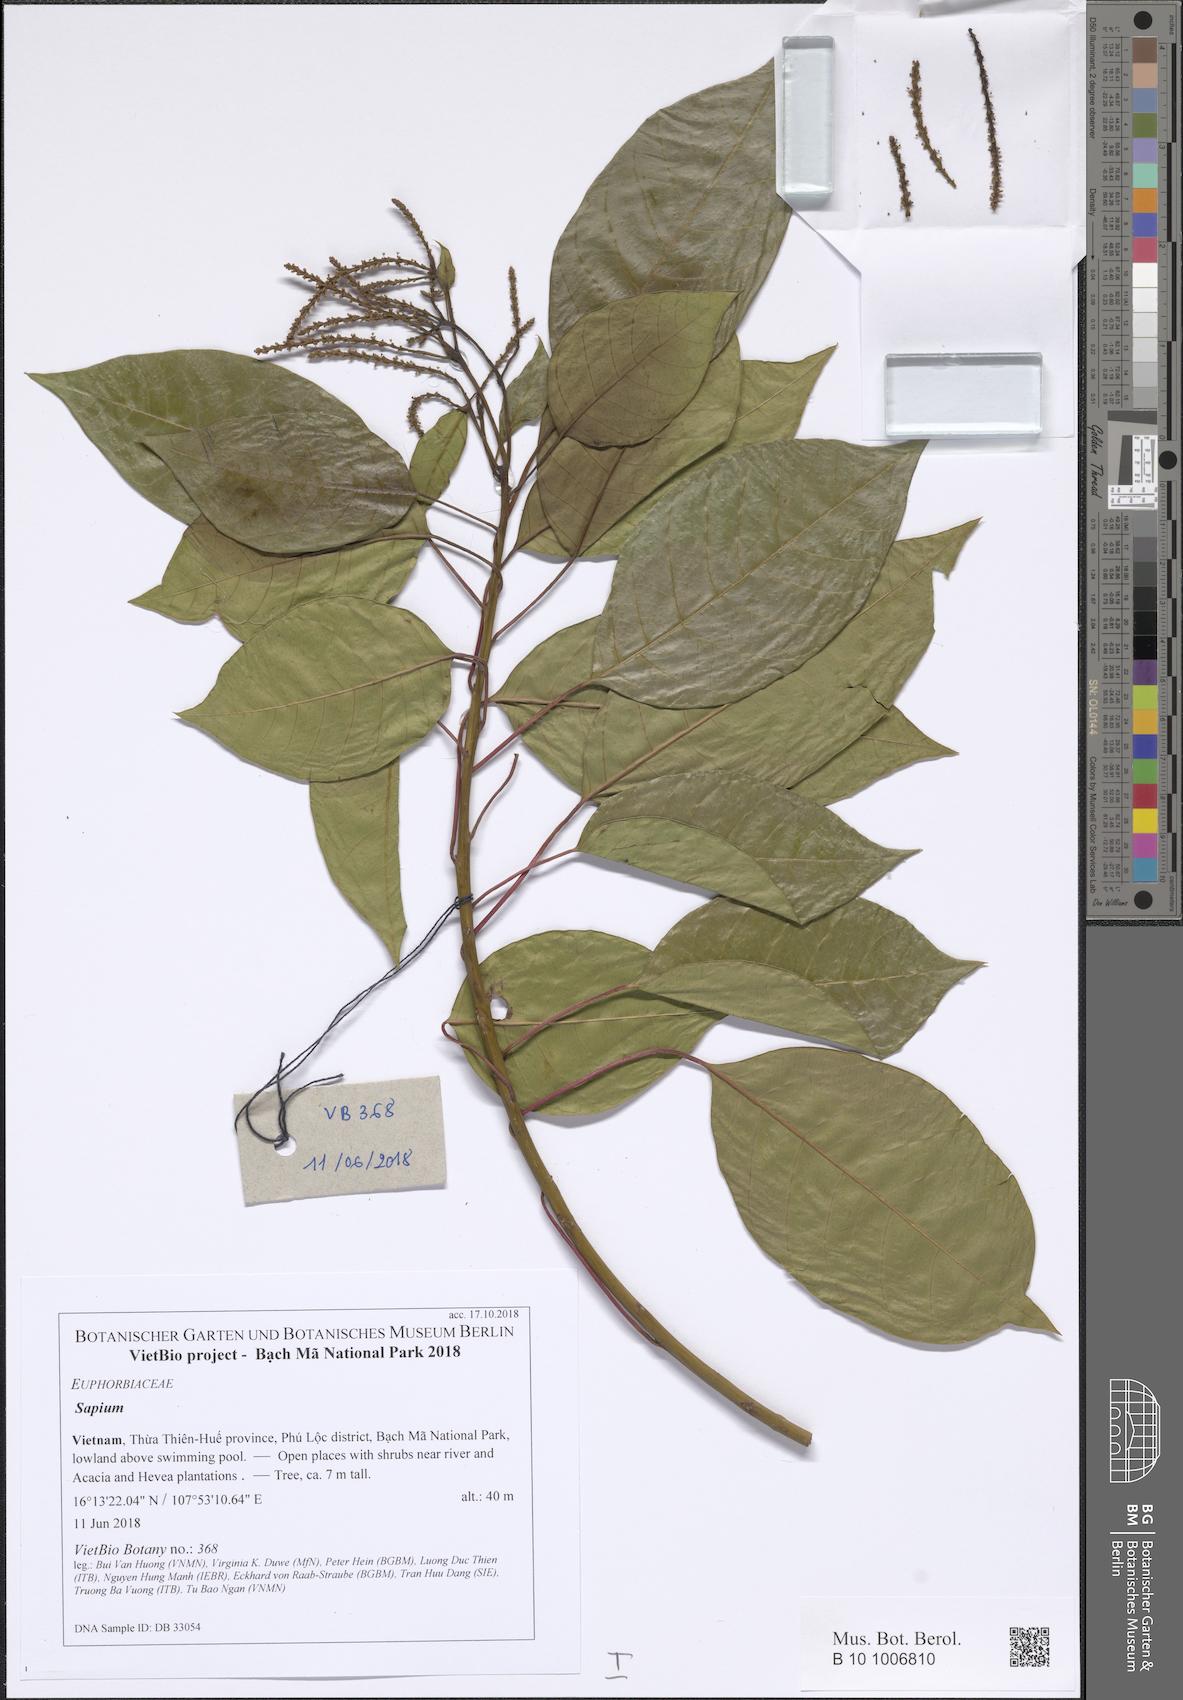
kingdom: Plantae
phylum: Tracheophyta
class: Magnoliopsida
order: Malpighiales
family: Euphorbiaceae
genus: Sapium
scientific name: Sapium
